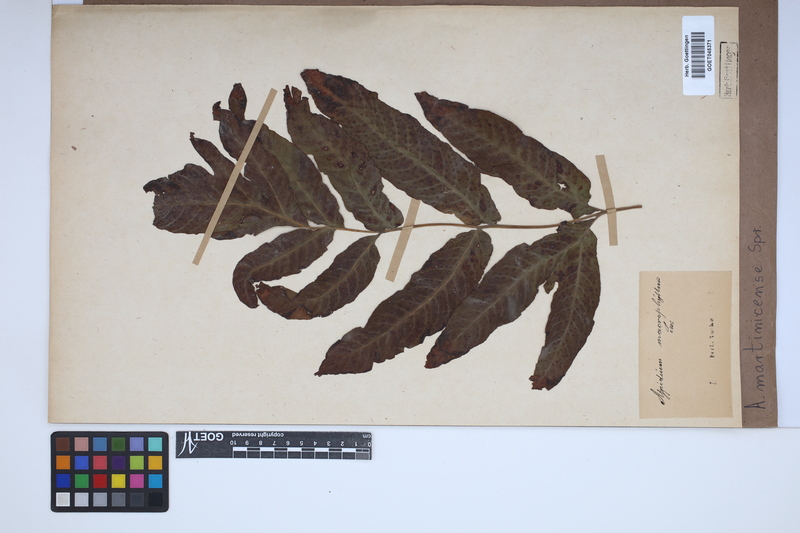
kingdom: Plantae
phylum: Tracheophyta
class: Polypodiopsida
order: Polypodiales
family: Tectariaceae
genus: Tectaria
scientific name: Tectaria incisa
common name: Incised halberd fern
